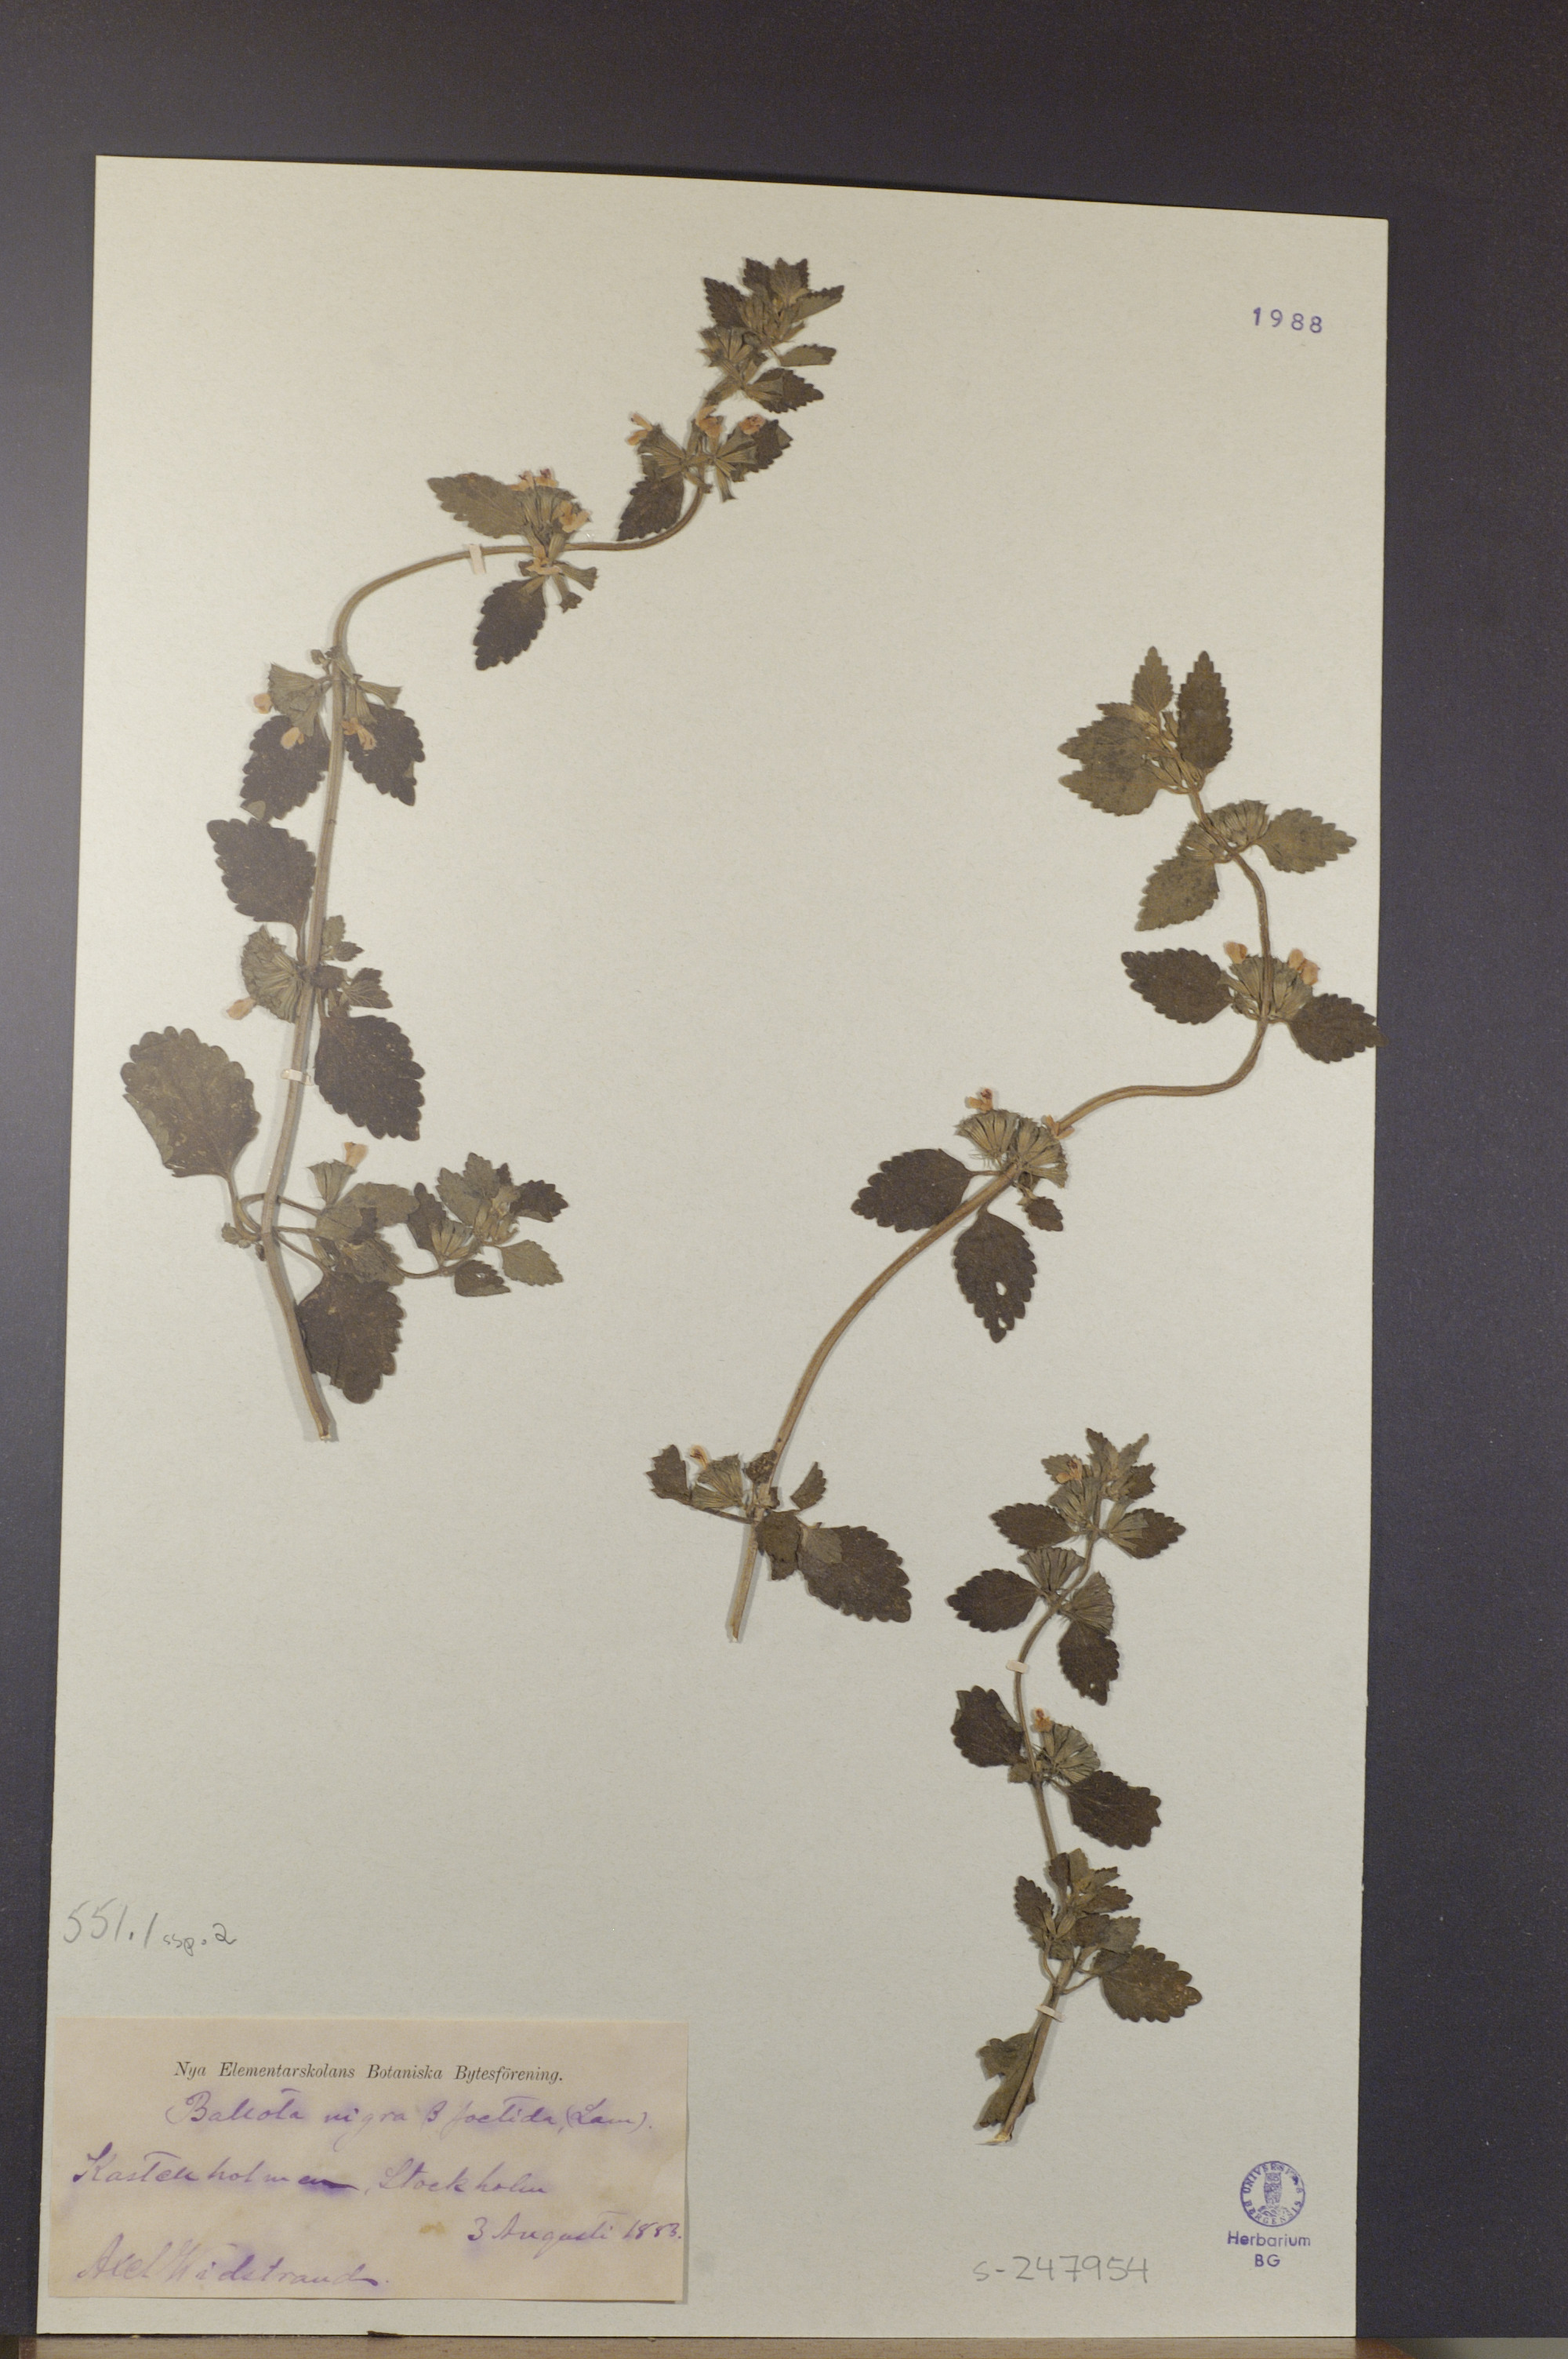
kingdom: Plantae
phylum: Tracheophyta
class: Magnoliopsida
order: Lamiales
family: Lamiaceae
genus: Ballota
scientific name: Ballota nigra
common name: Black horehound
